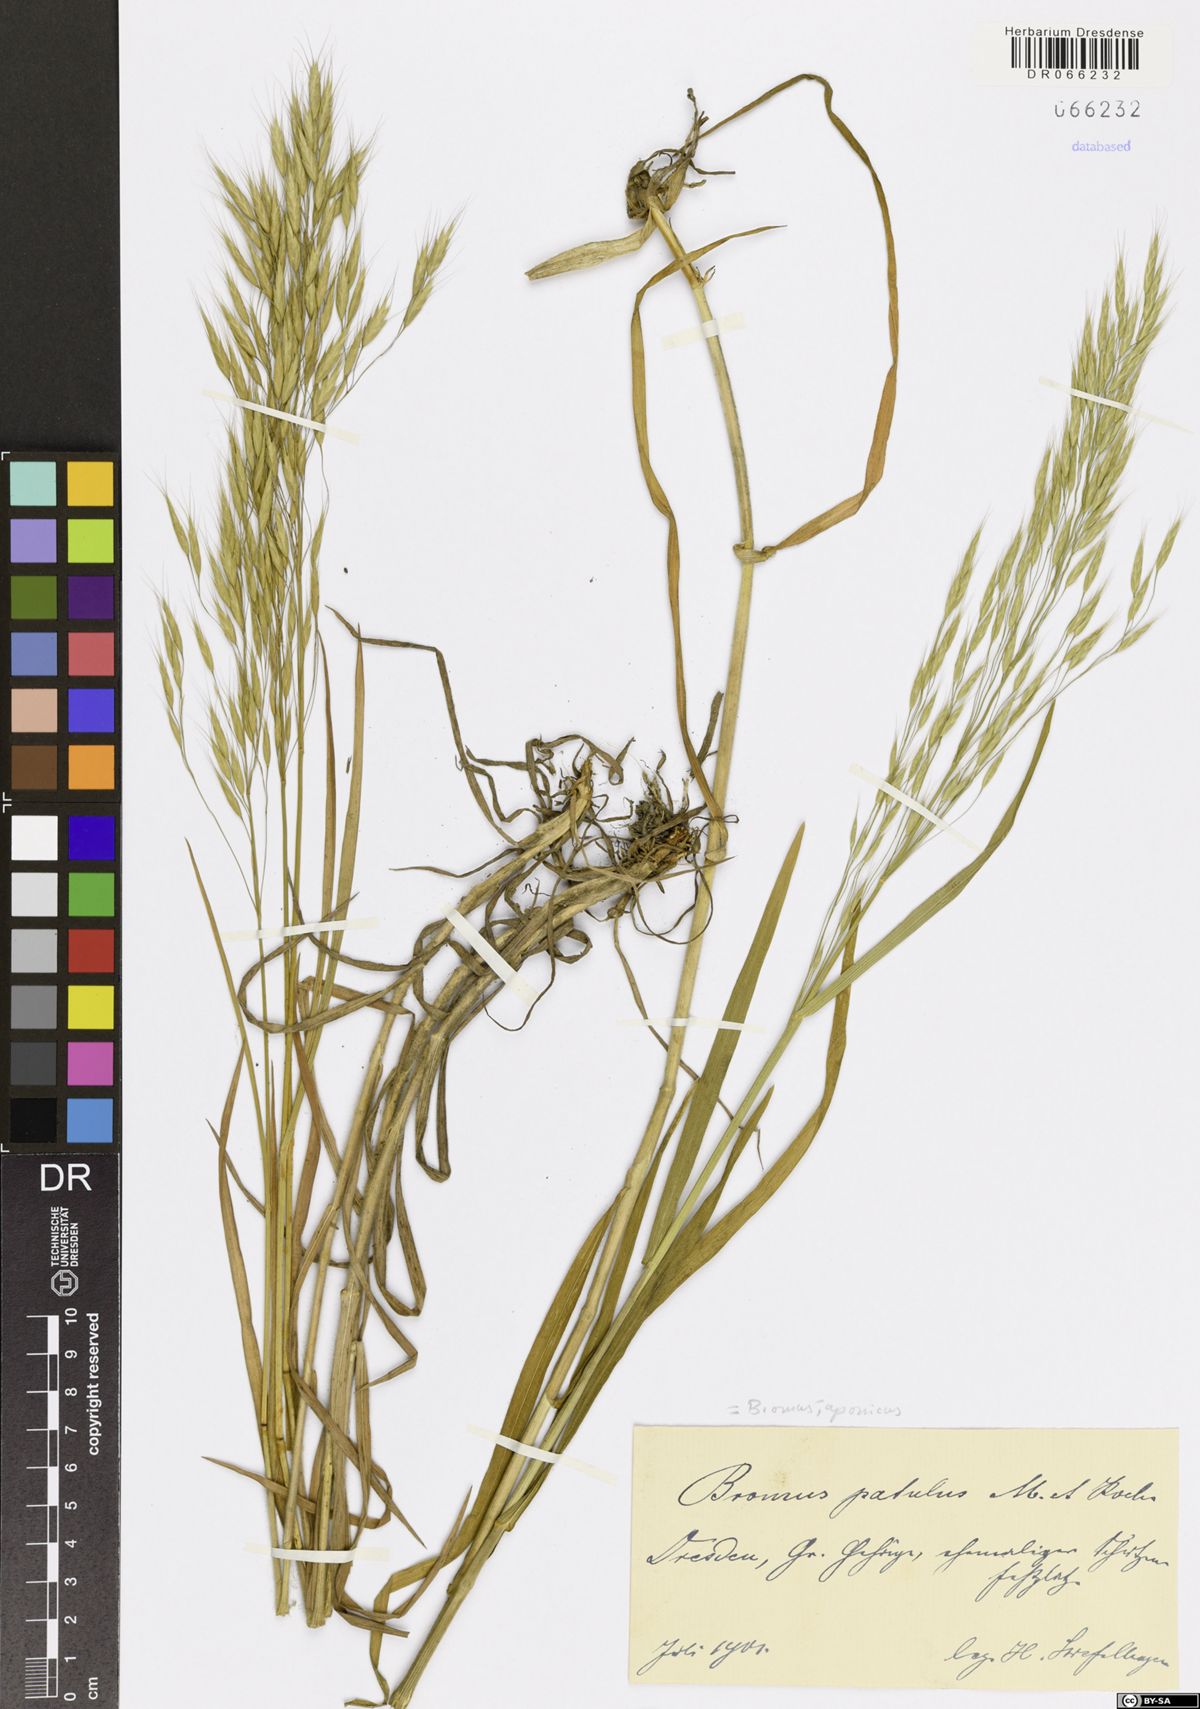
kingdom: Plantae
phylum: Tracheophyta
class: Liliopsida
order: Poales
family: Poaceae
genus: Bromus
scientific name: Bromus japonicus
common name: Japanese brome
